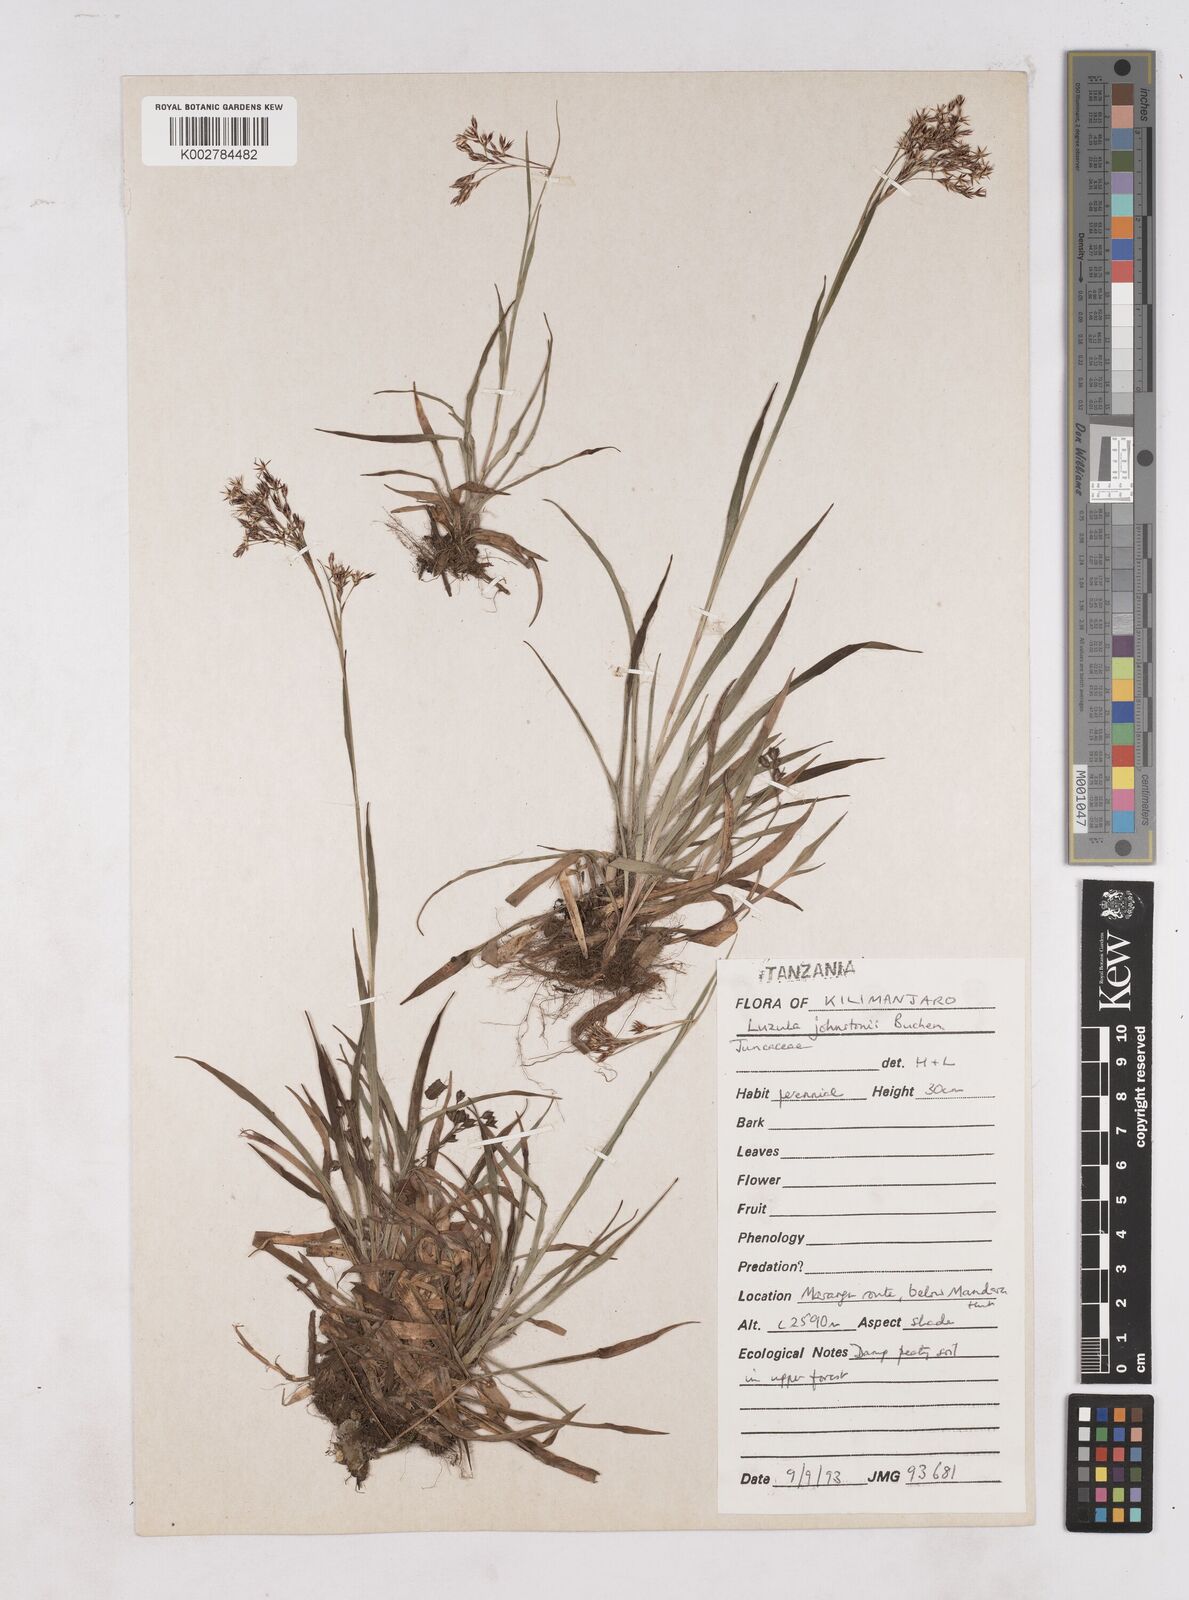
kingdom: Plantae
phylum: Tracheophyta
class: Liliopsida
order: Poales
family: Juncaceae
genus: Luzula
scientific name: Luzula johnstonii
